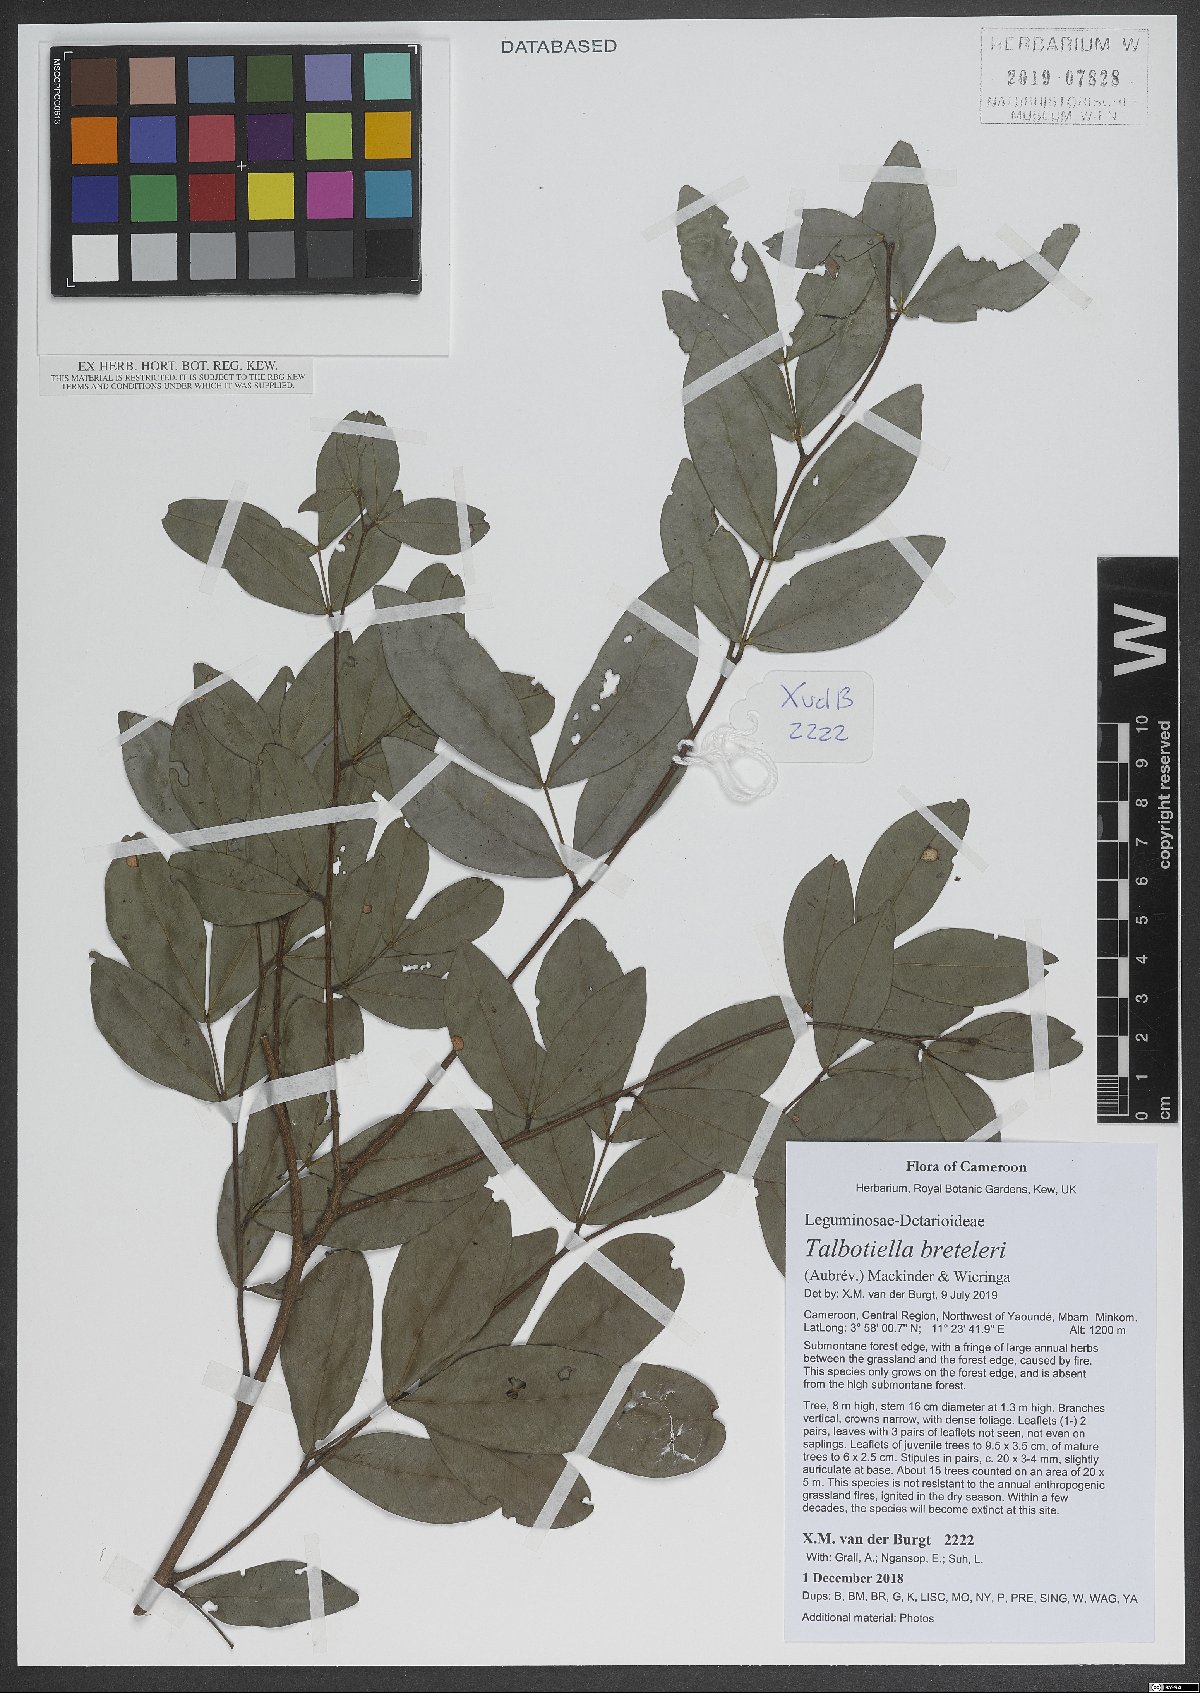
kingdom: Plantae
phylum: Tracheophyta
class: Magnoliopsida
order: Fabales
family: Fabaceae
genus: Talbotiella
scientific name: Talbotiella breteleri
